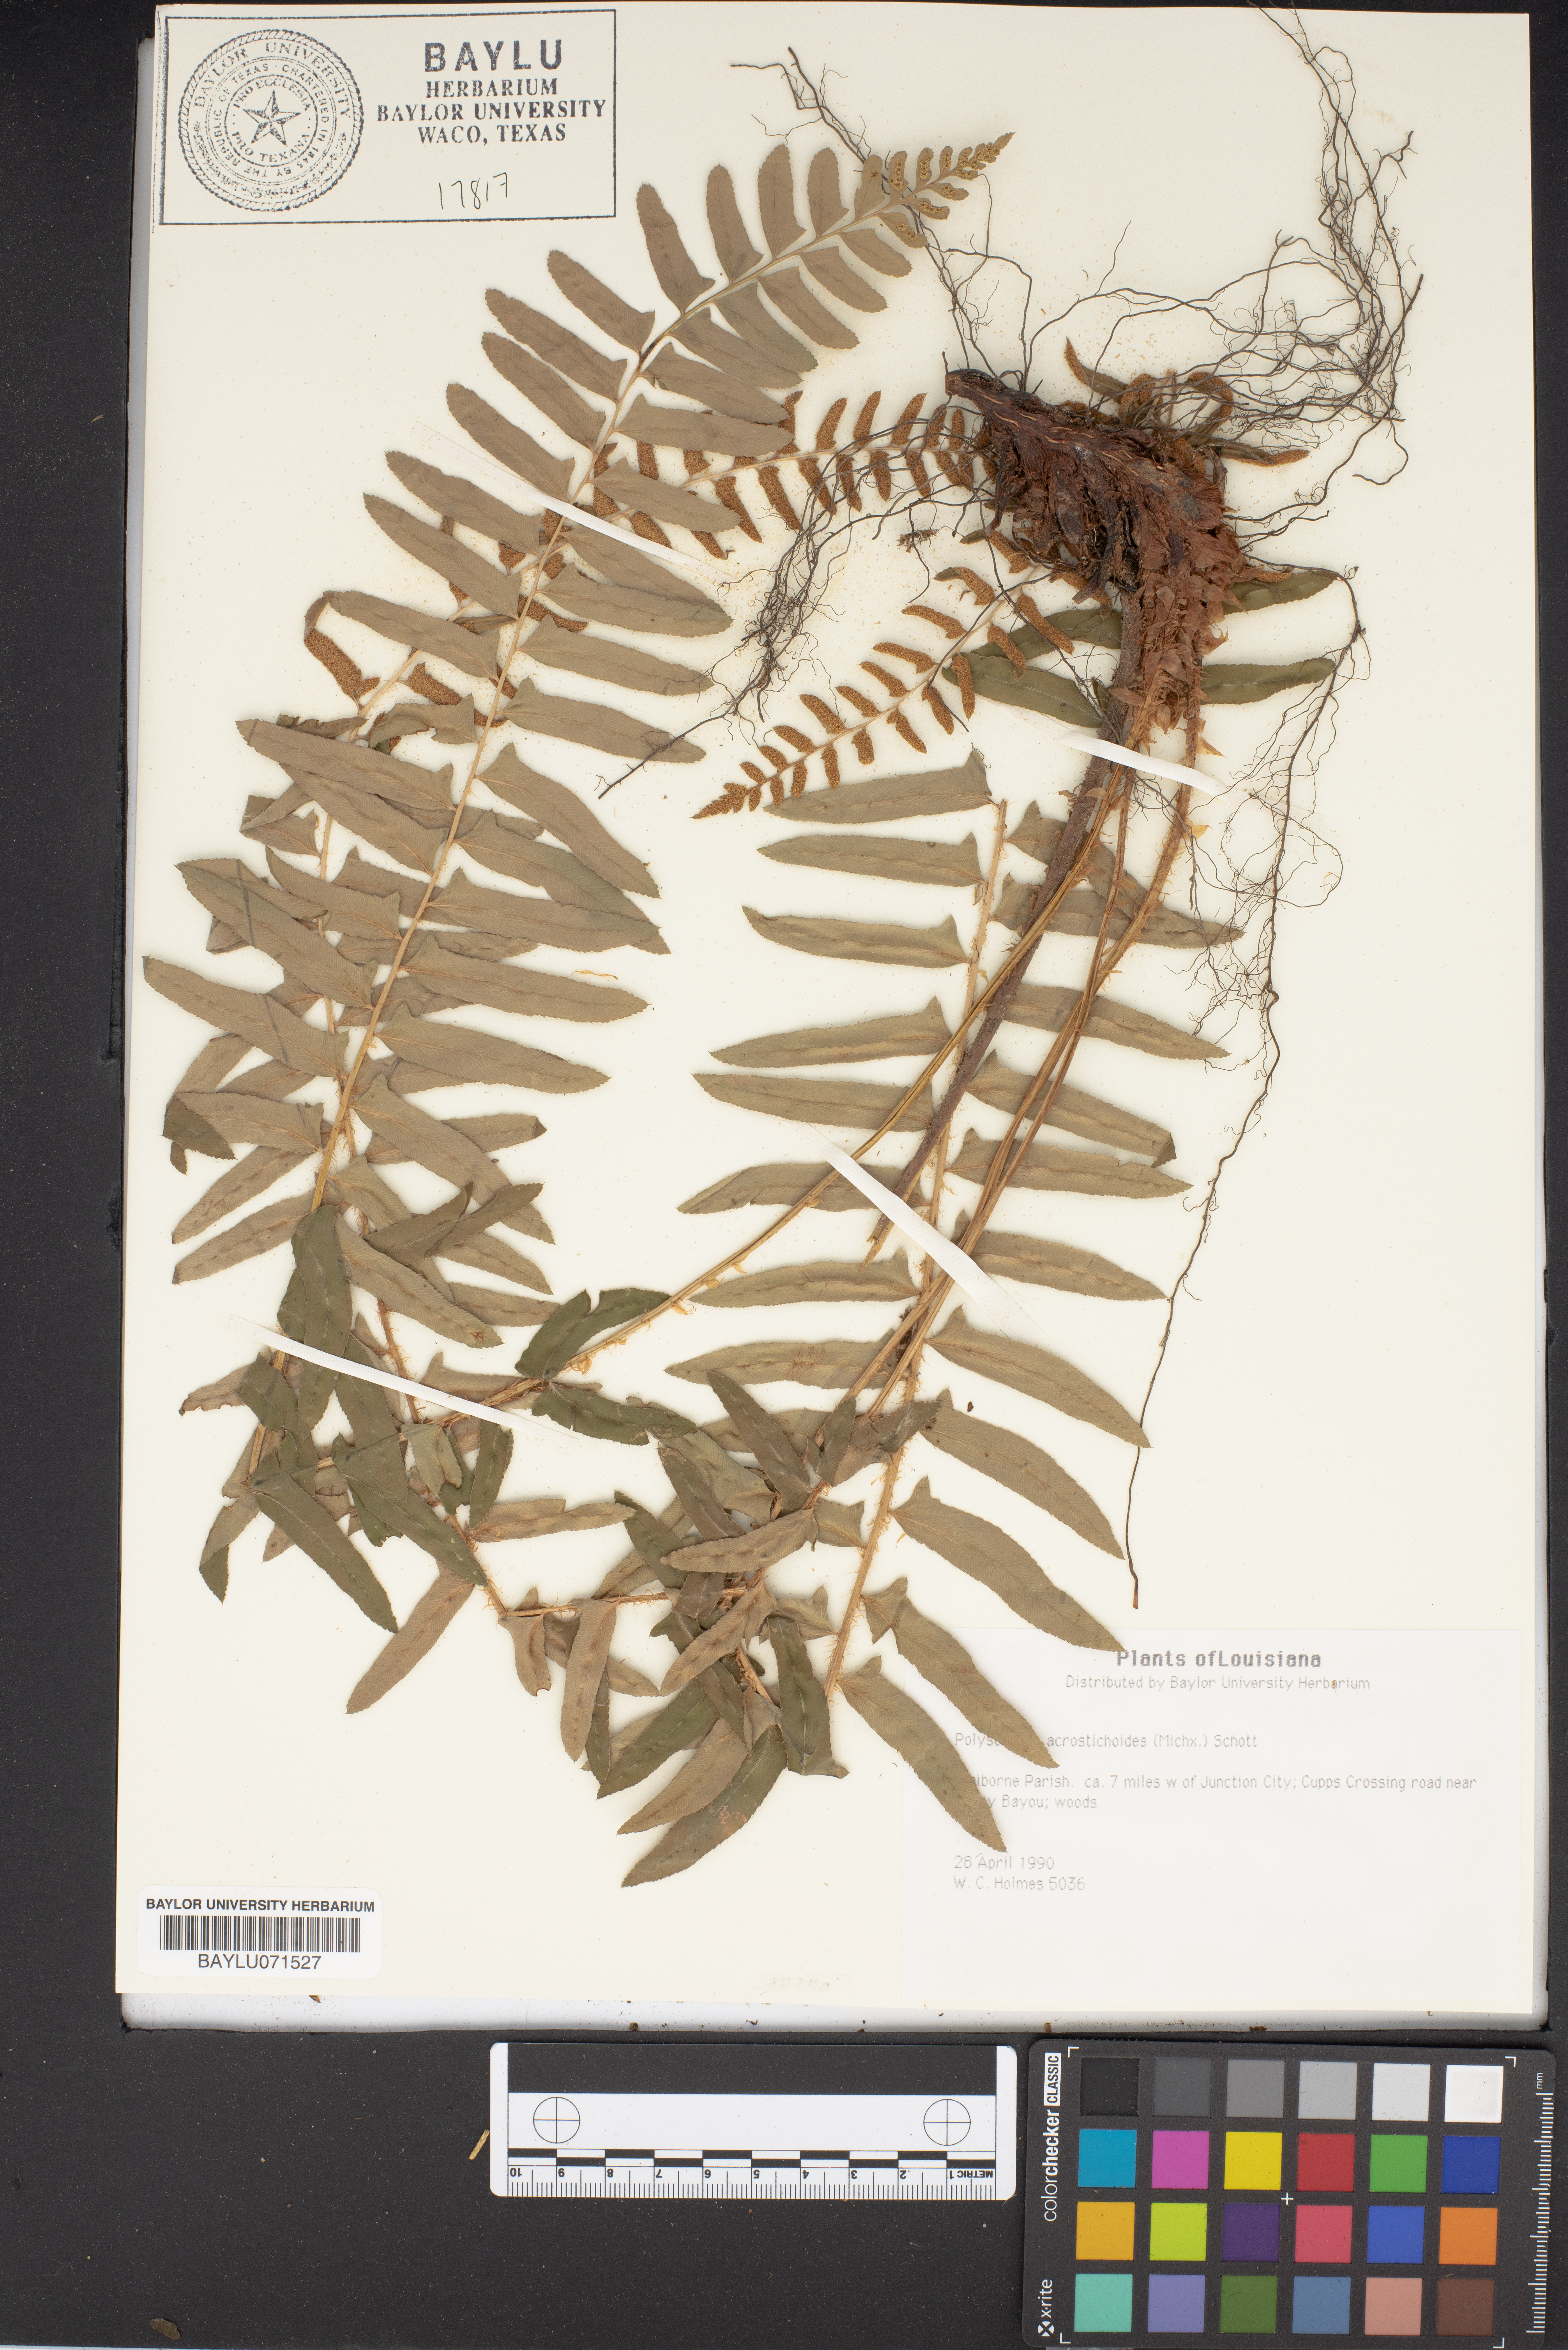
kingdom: Plantae
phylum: Tracheophyta
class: Polypodiopsida
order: Polypodiales
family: Dryopteridaceae
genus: Polystichum
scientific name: Polystichum acrostichoides
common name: Christmas fern
